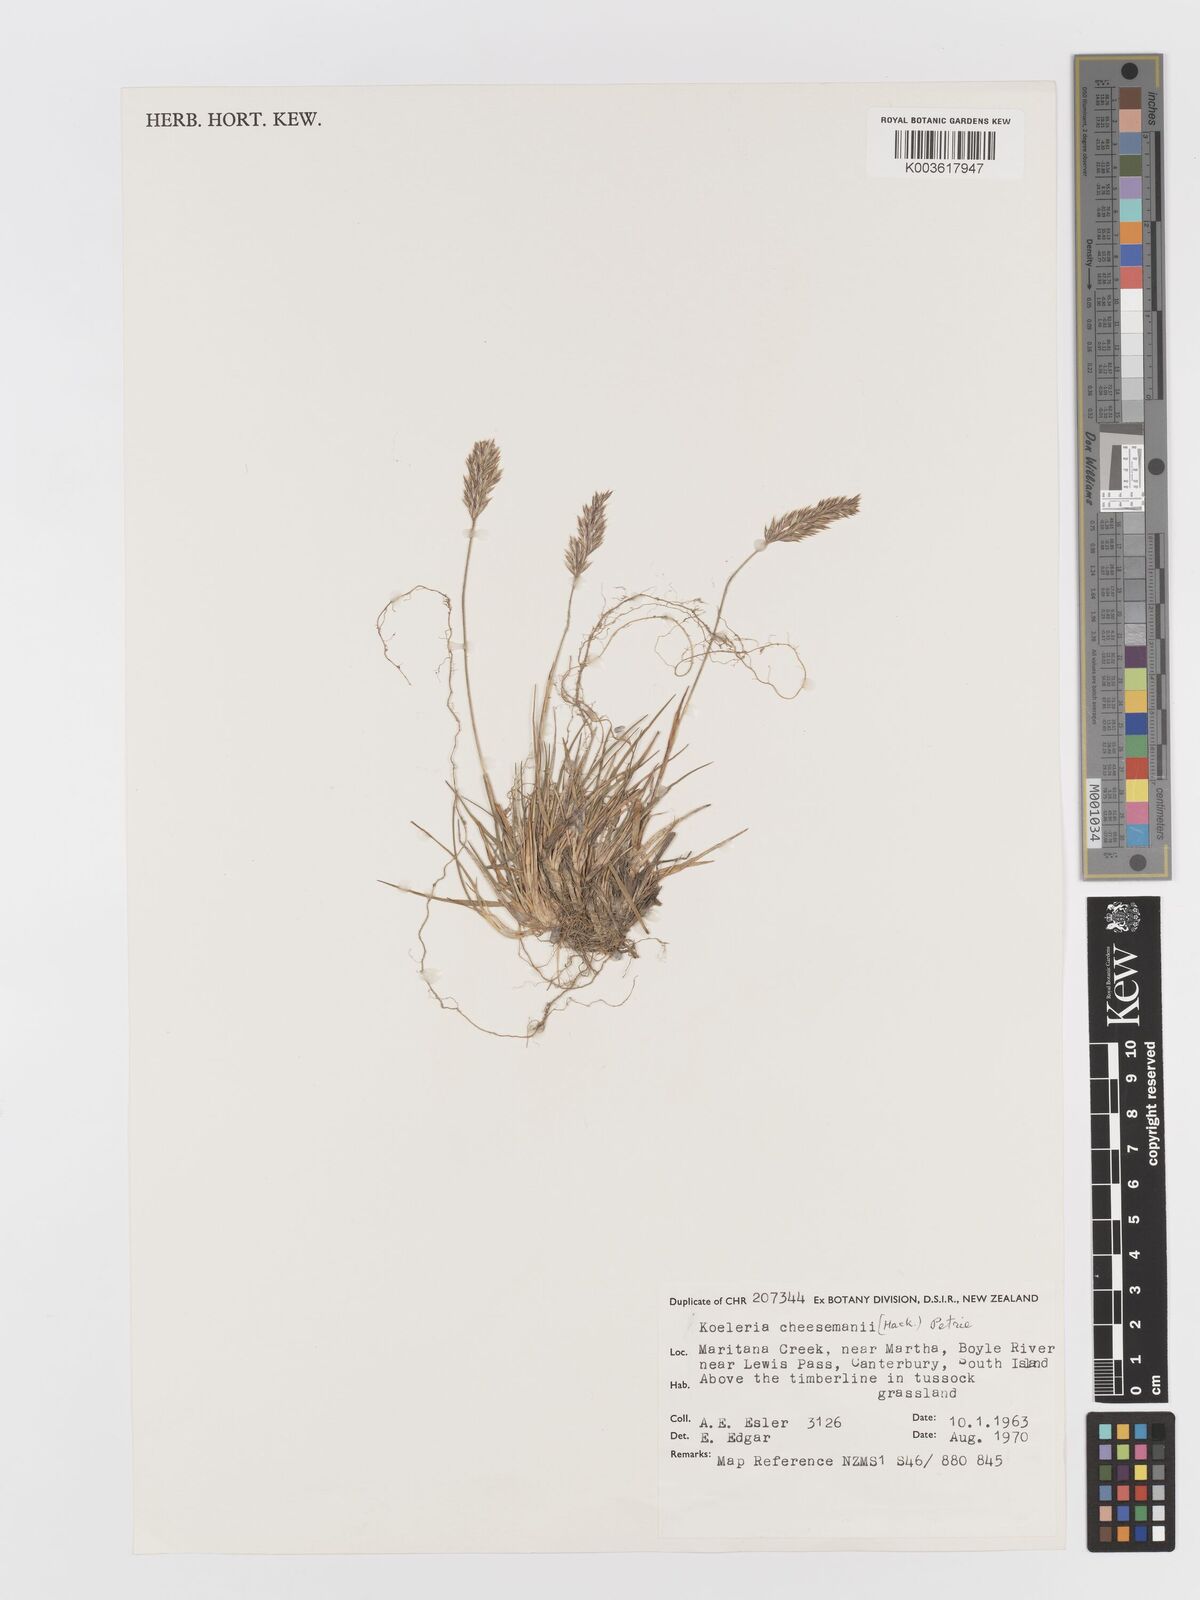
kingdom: Plantae
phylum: Tracheophyta
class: Liliopsida
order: Poales
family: Poaceae
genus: Koeleria
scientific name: Koeleria cheesemanii
